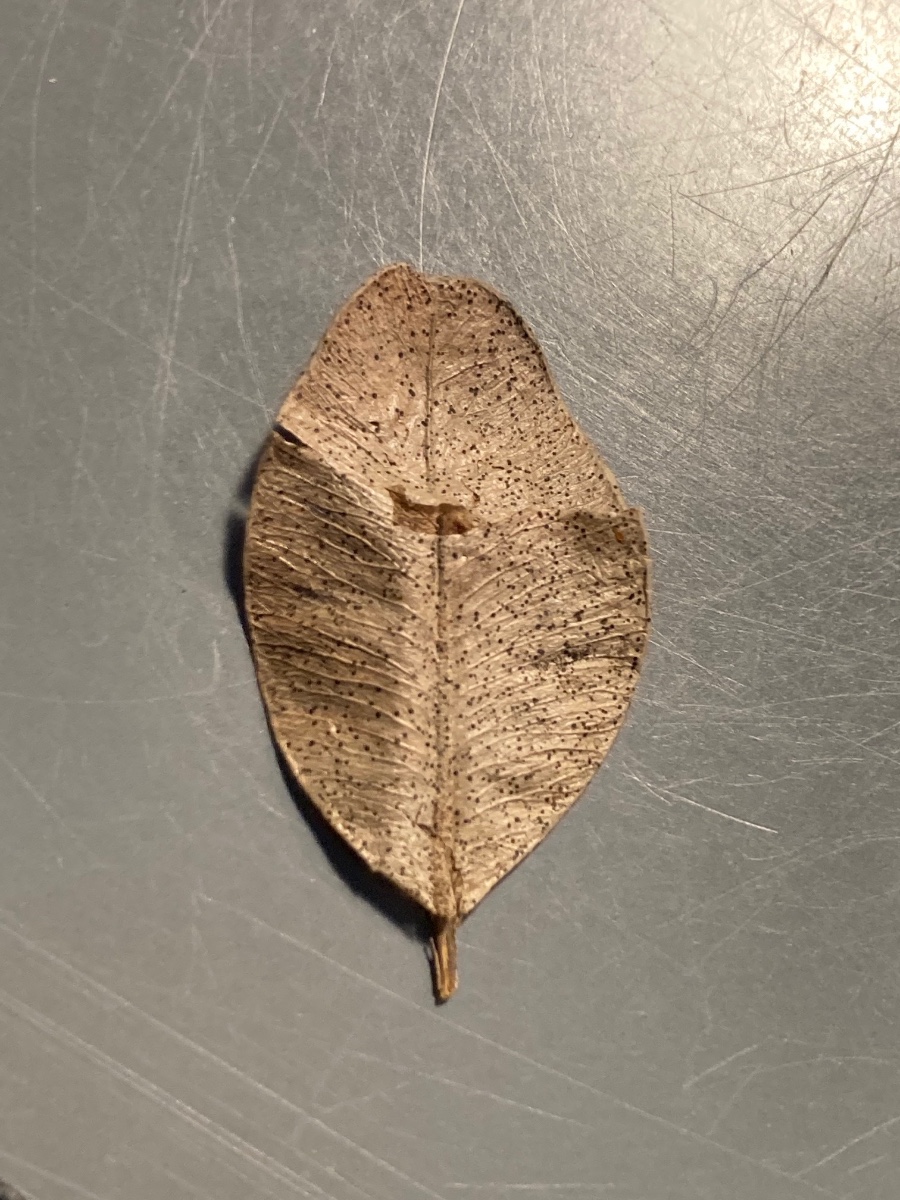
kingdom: Fungi
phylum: Ascomycota
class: Dothideomycetes
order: Microthyriales
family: Microthyriaceae
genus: Microthyrium
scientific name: Microthyrium macrosporum
